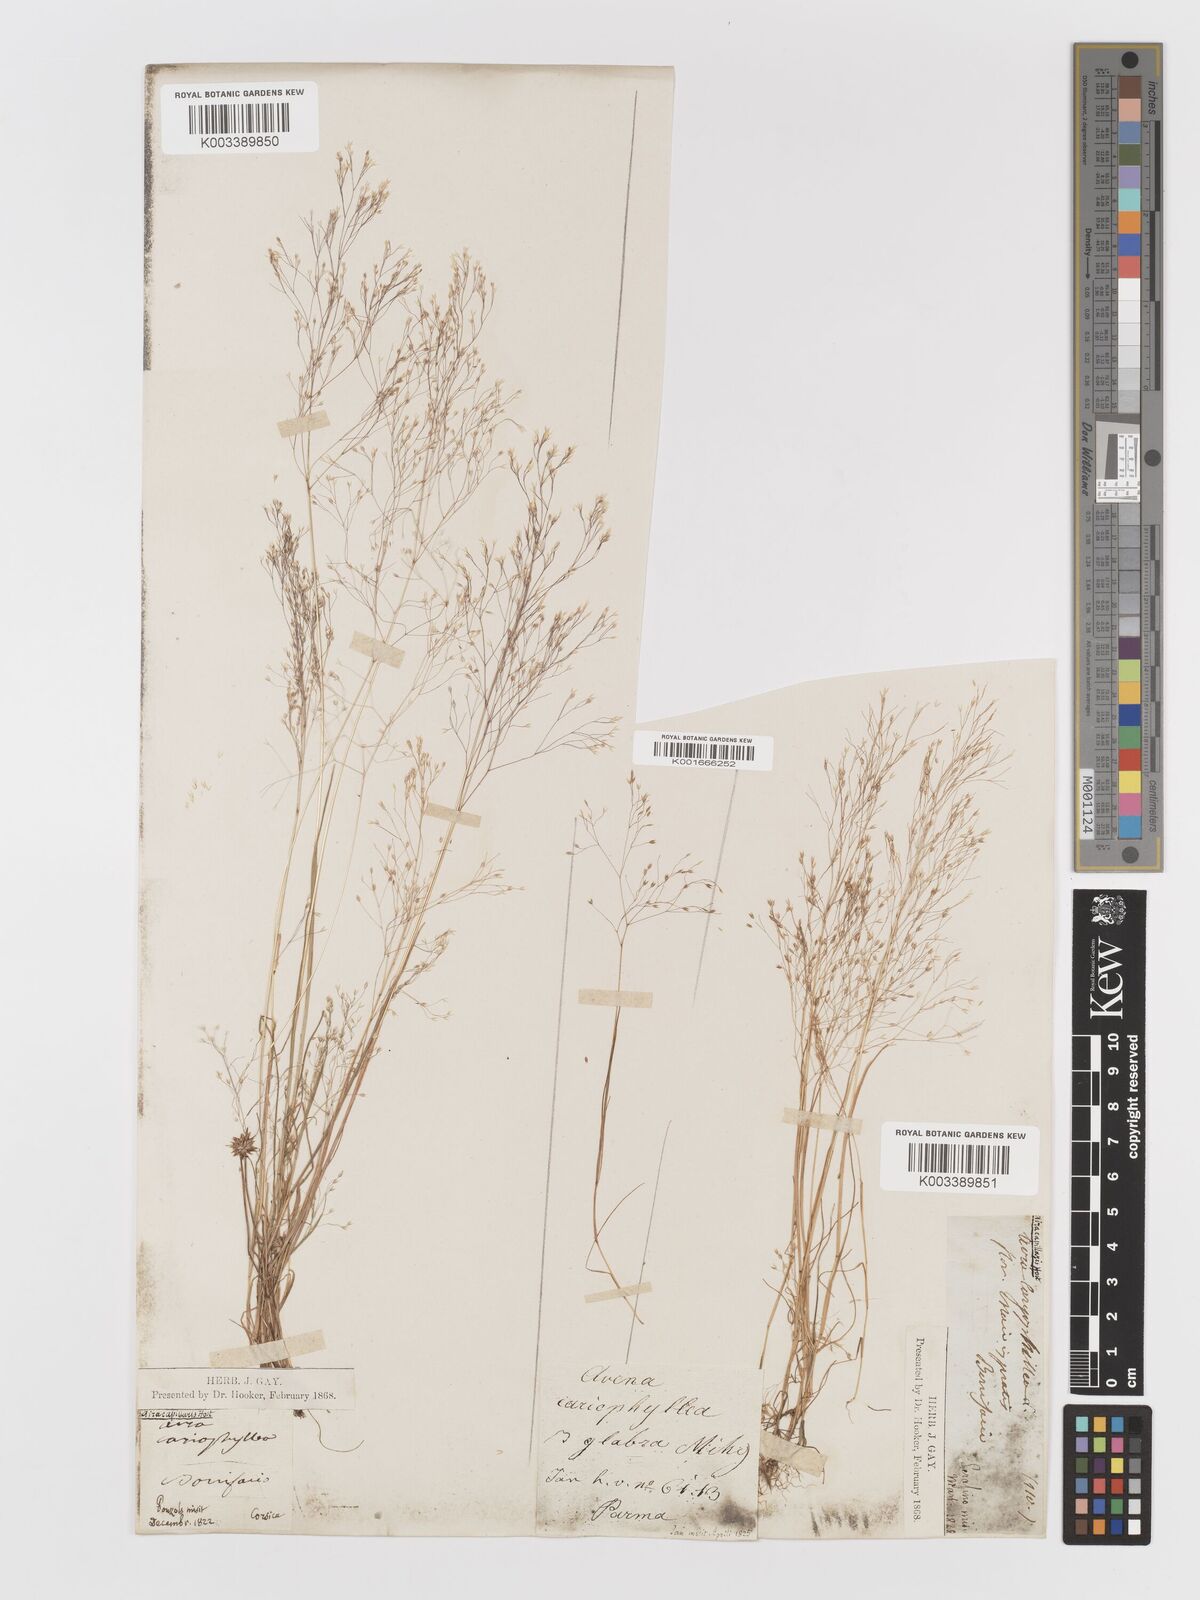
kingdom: Plantae
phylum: Tracheophyta
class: Liliopsida
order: Poales
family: Poaceae
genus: Aira
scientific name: Aira elegans
